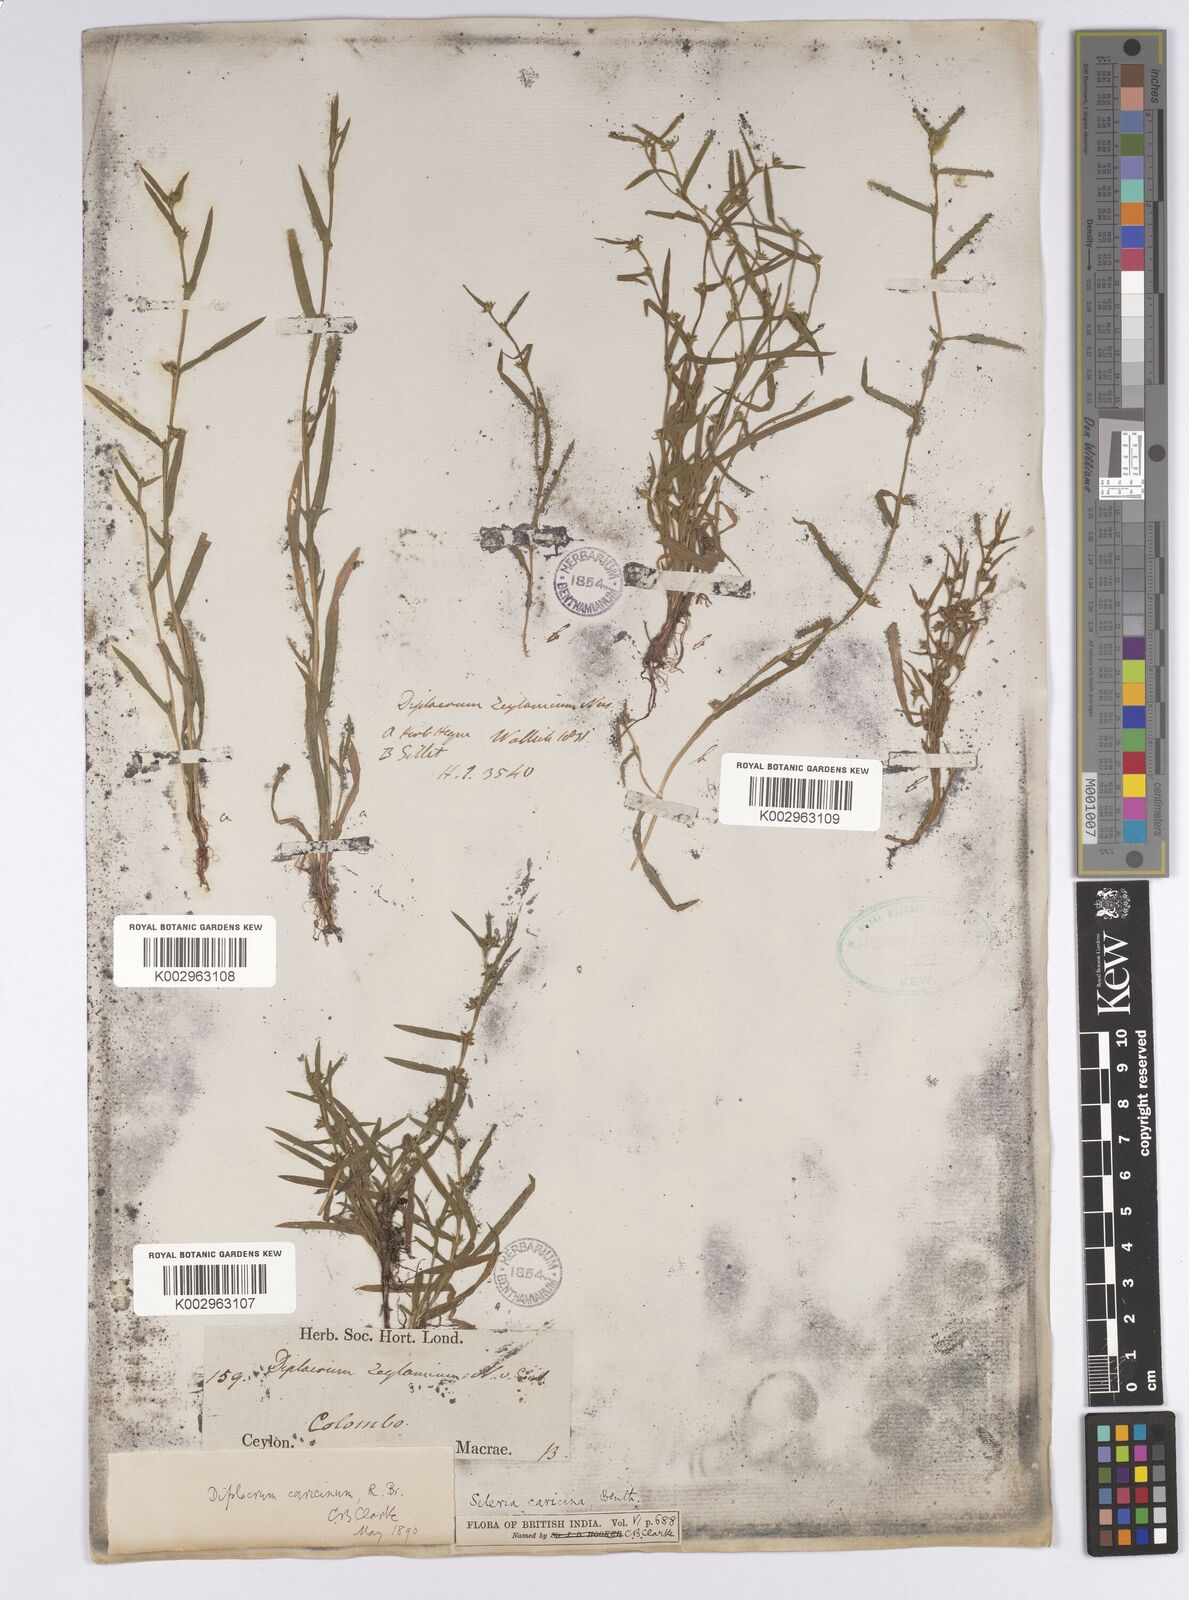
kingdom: Plantae
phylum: Tracheophyta
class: Liliopsida
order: Poales
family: Cyperaceae
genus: Diplacrum
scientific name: Diplacrum caricinum
